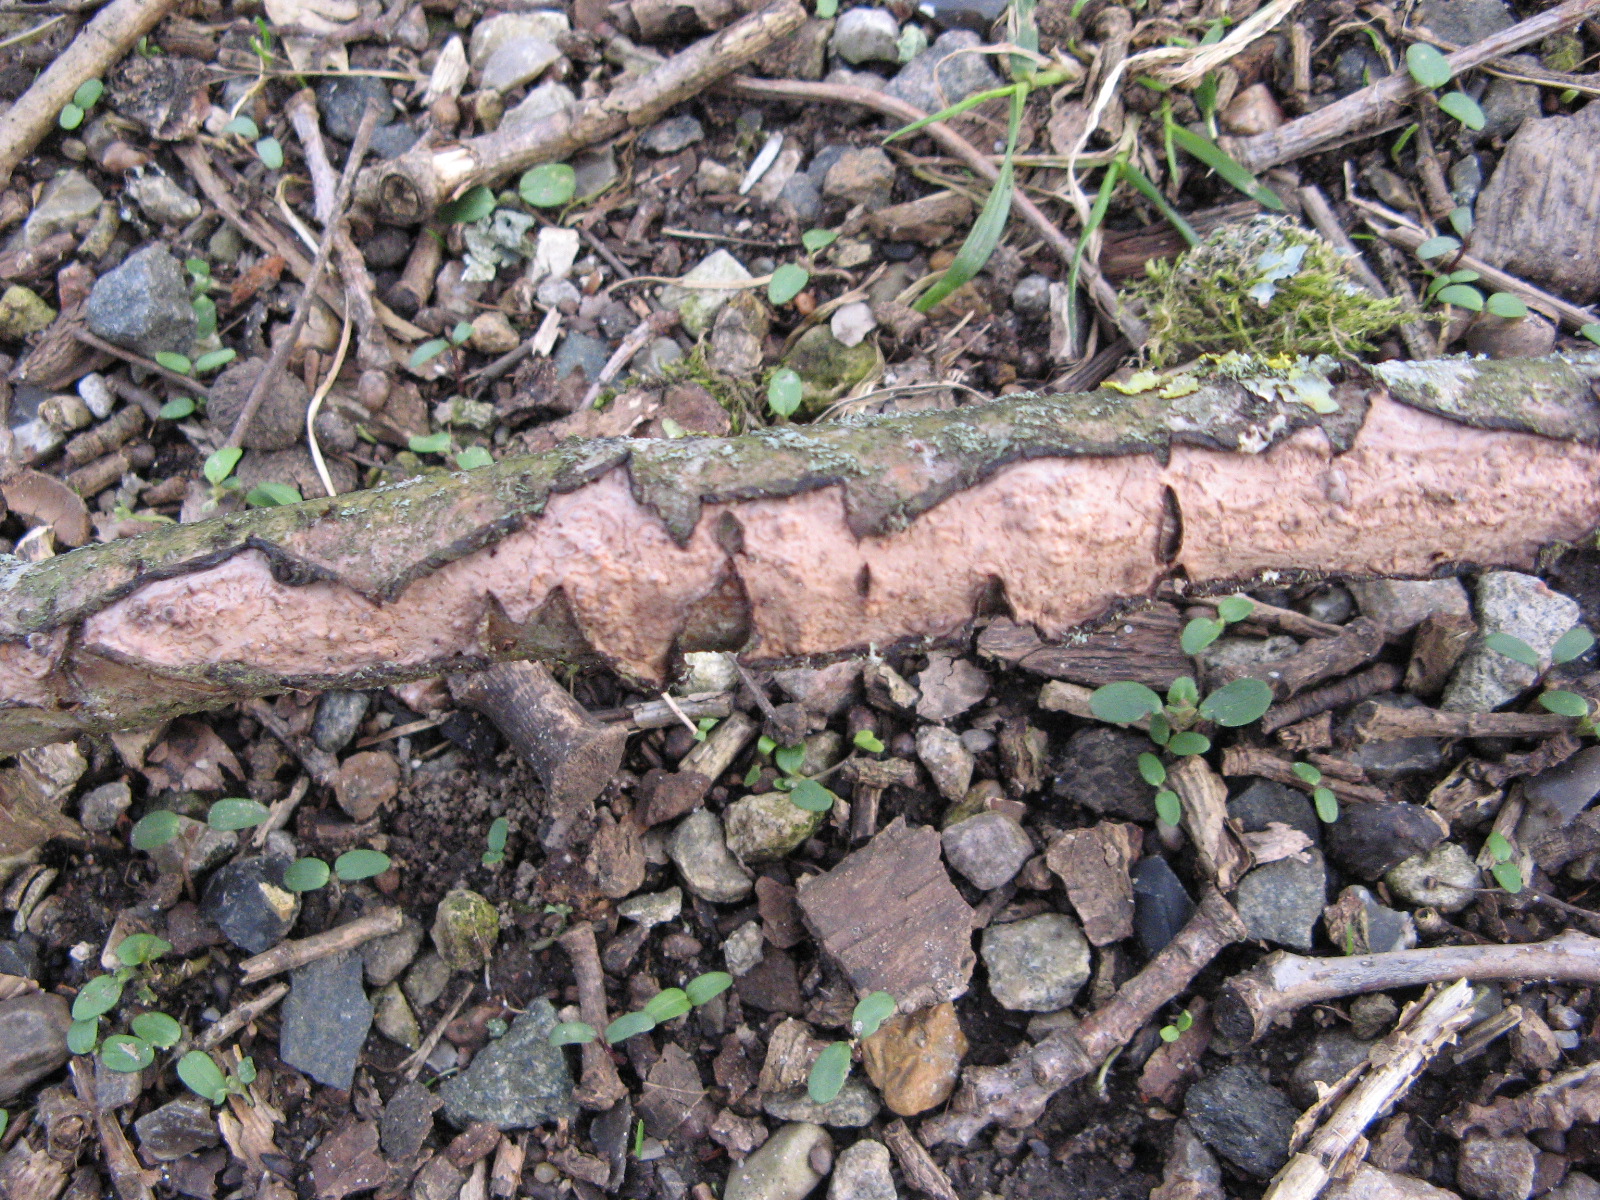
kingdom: Fungi
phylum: Basidiomycota
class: Agaricomycetes
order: Russulales
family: Peniophoraceae
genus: Peniophora
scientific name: Peniophora quercina
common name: ege-voksskind
